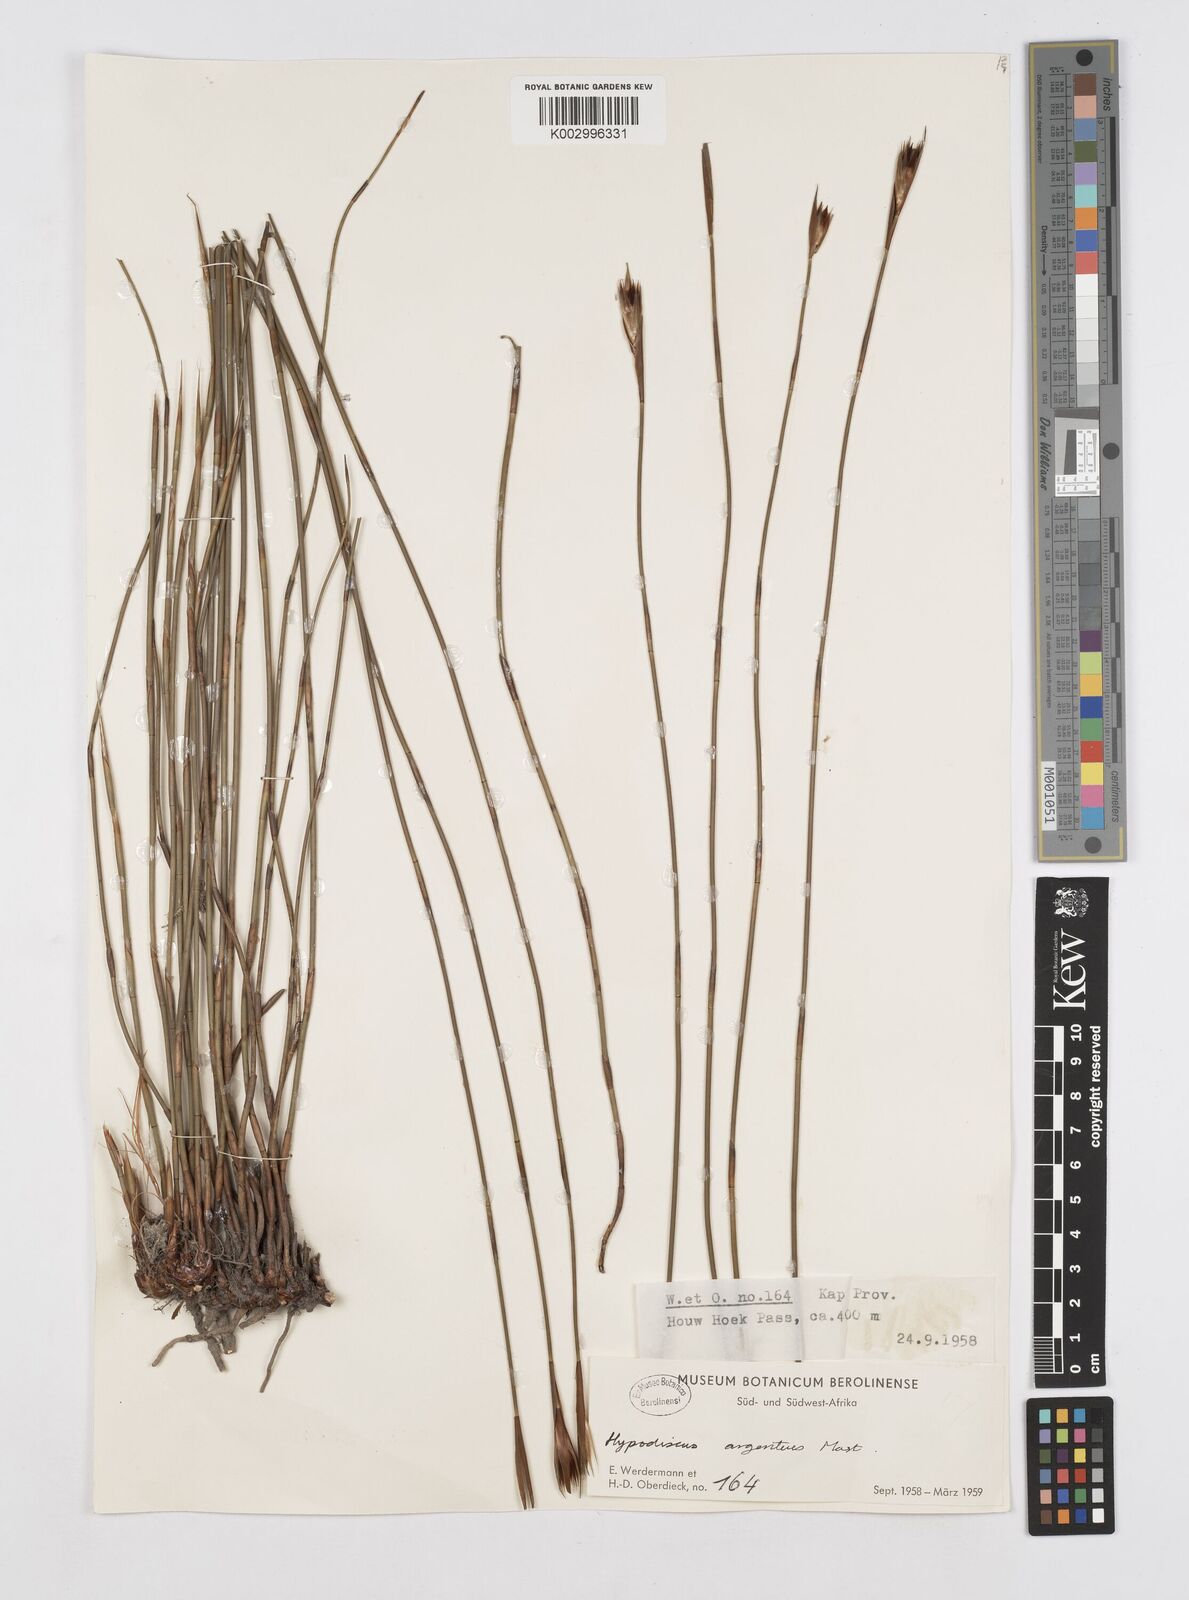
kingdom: Plantae
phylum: Tracheophyta
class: Liliopsida
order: Poales
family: Restionaceae
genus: Hypodiscus
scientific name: Hypodiscus argenteus
